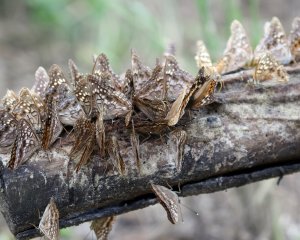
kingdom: Animalia
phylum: Arthropoda
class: Insecta
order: Lepidoptera
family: Nymphalidae
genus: Asterocampa
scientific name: Asterocampa clyton
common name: Tawny Emperor
